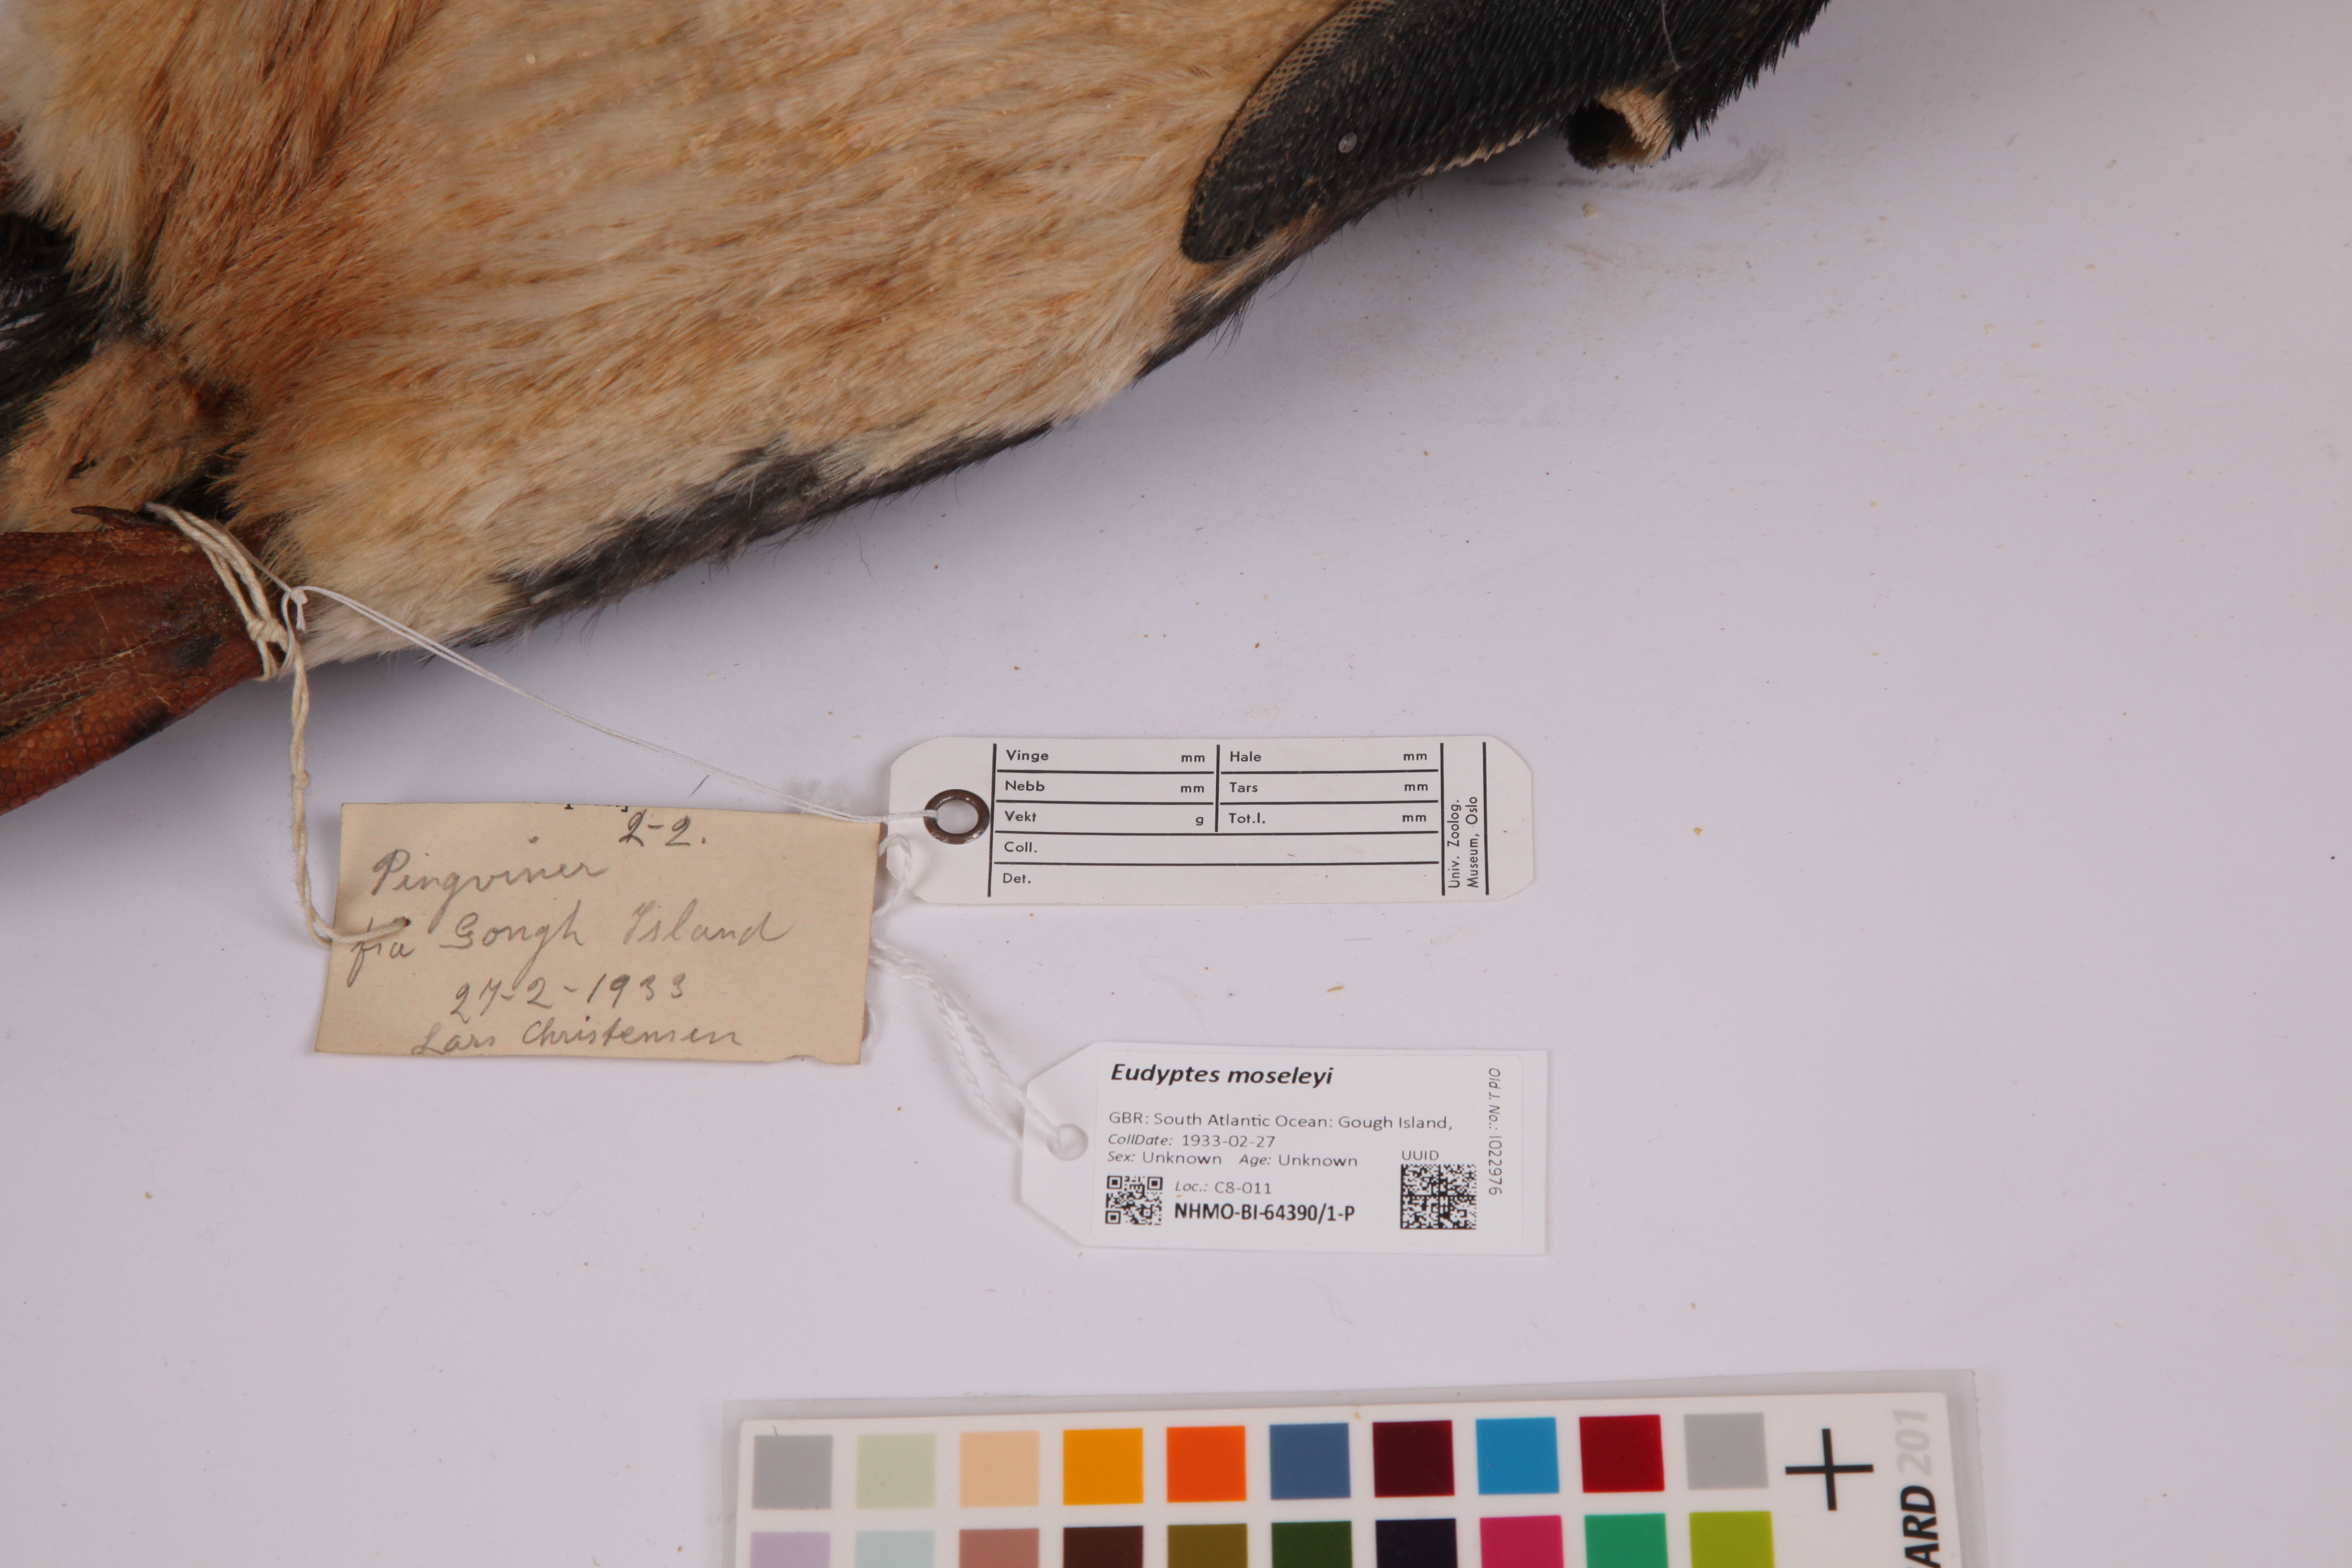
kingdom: Animalia
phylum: Chordata
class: Aves
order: Sphenisciformes
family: Spheniscidae
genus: Eudyptes
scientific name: Eudyptes moseleyi
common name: Northern rockhopper penguin
